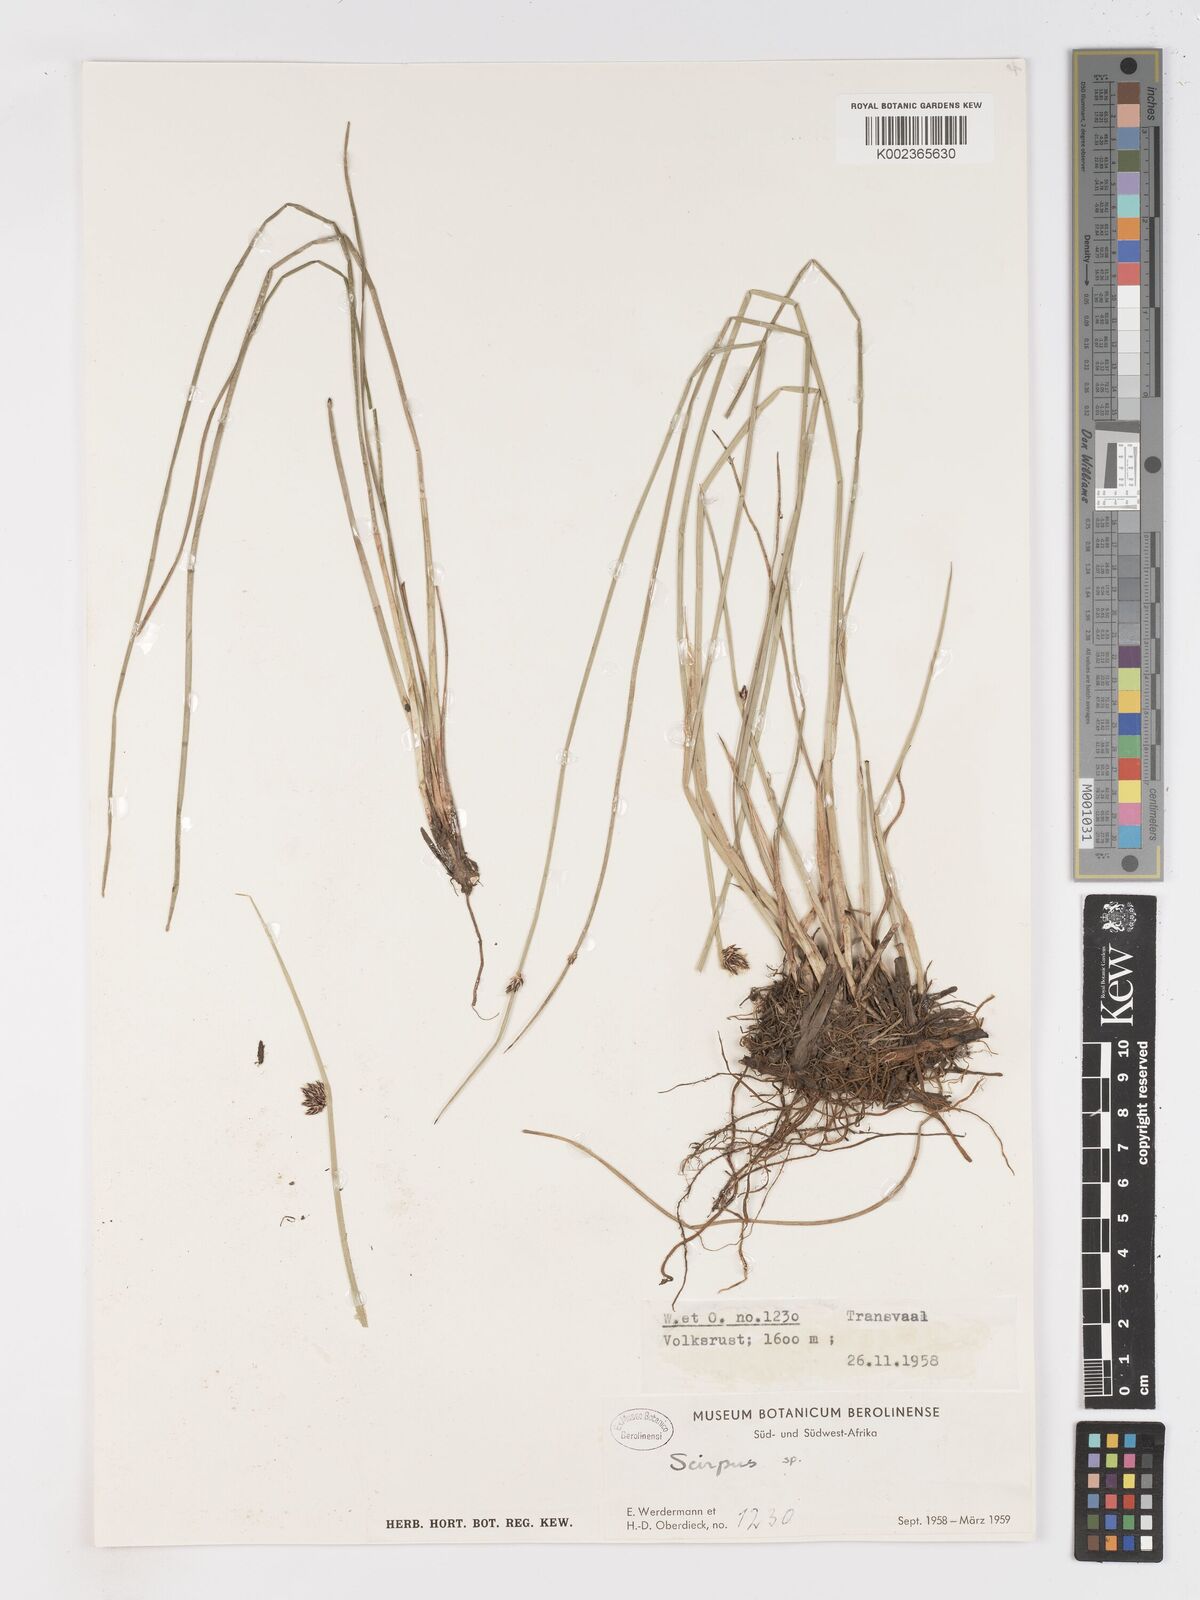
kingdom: Plantae
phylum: Tracheophyta
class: Liliopsida
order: Poales
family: Cyperaceae
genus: Schoenoplectus
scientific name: Schoenoplectus
